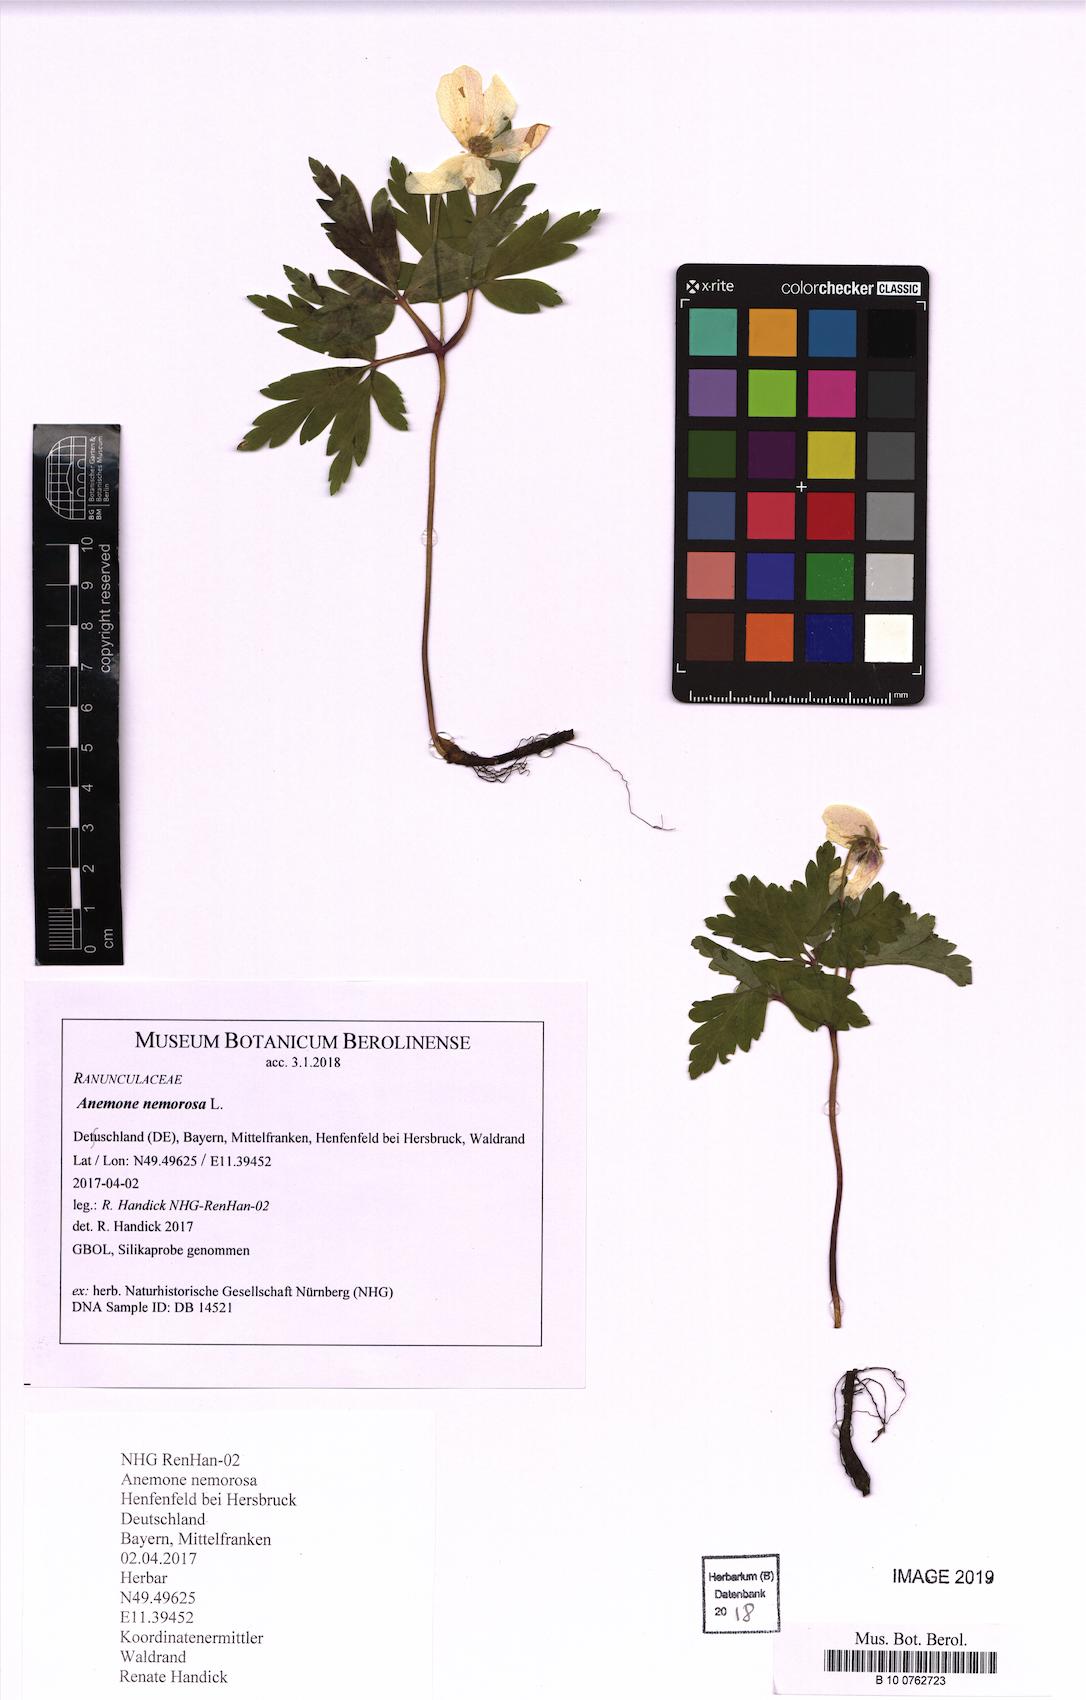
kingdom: Plantae
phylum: Tracheophyta
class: Magnoliopsida
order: Ranunculales
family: Ranunculaceae
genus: Anemone
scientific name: Anemone nemorosa
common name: Wood anemone
